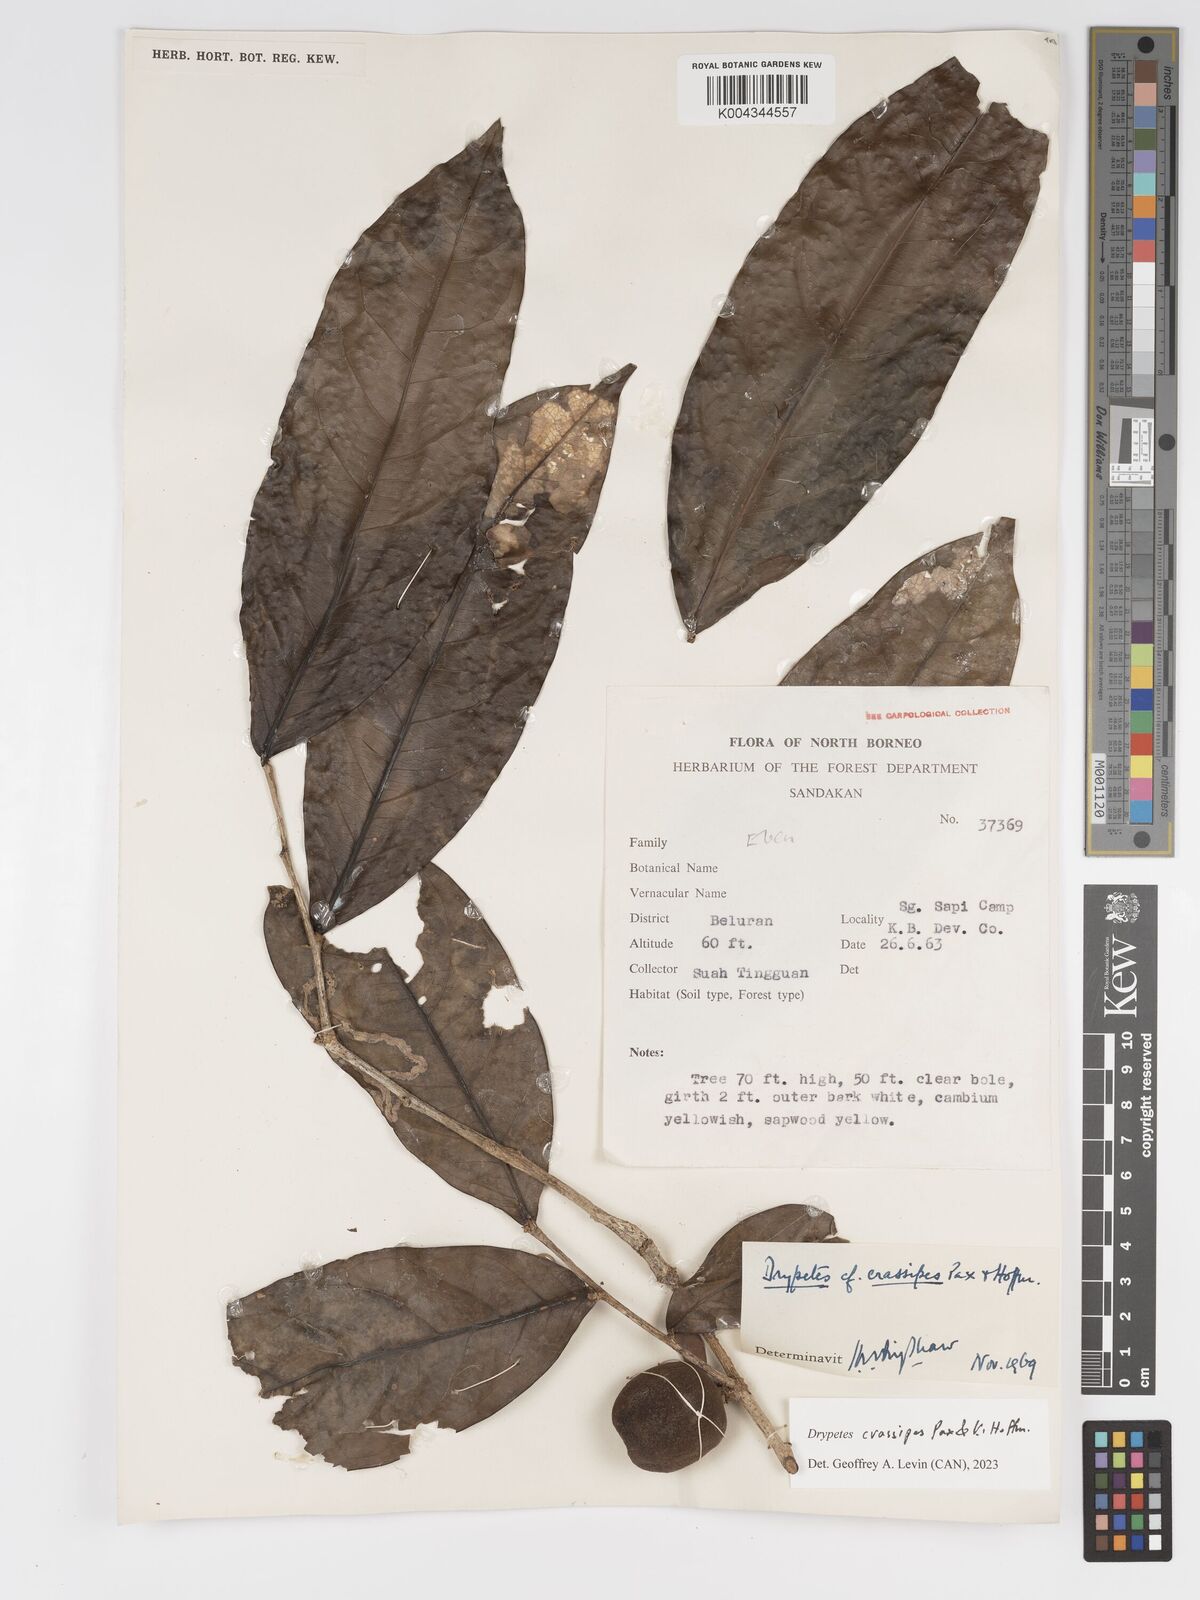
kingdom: Plantae
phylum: Tracheophyta
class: Magnoliopsida
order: Malpighiales
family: Putranjivaceae
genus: Drypetes
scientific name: Drypetes crassipes
